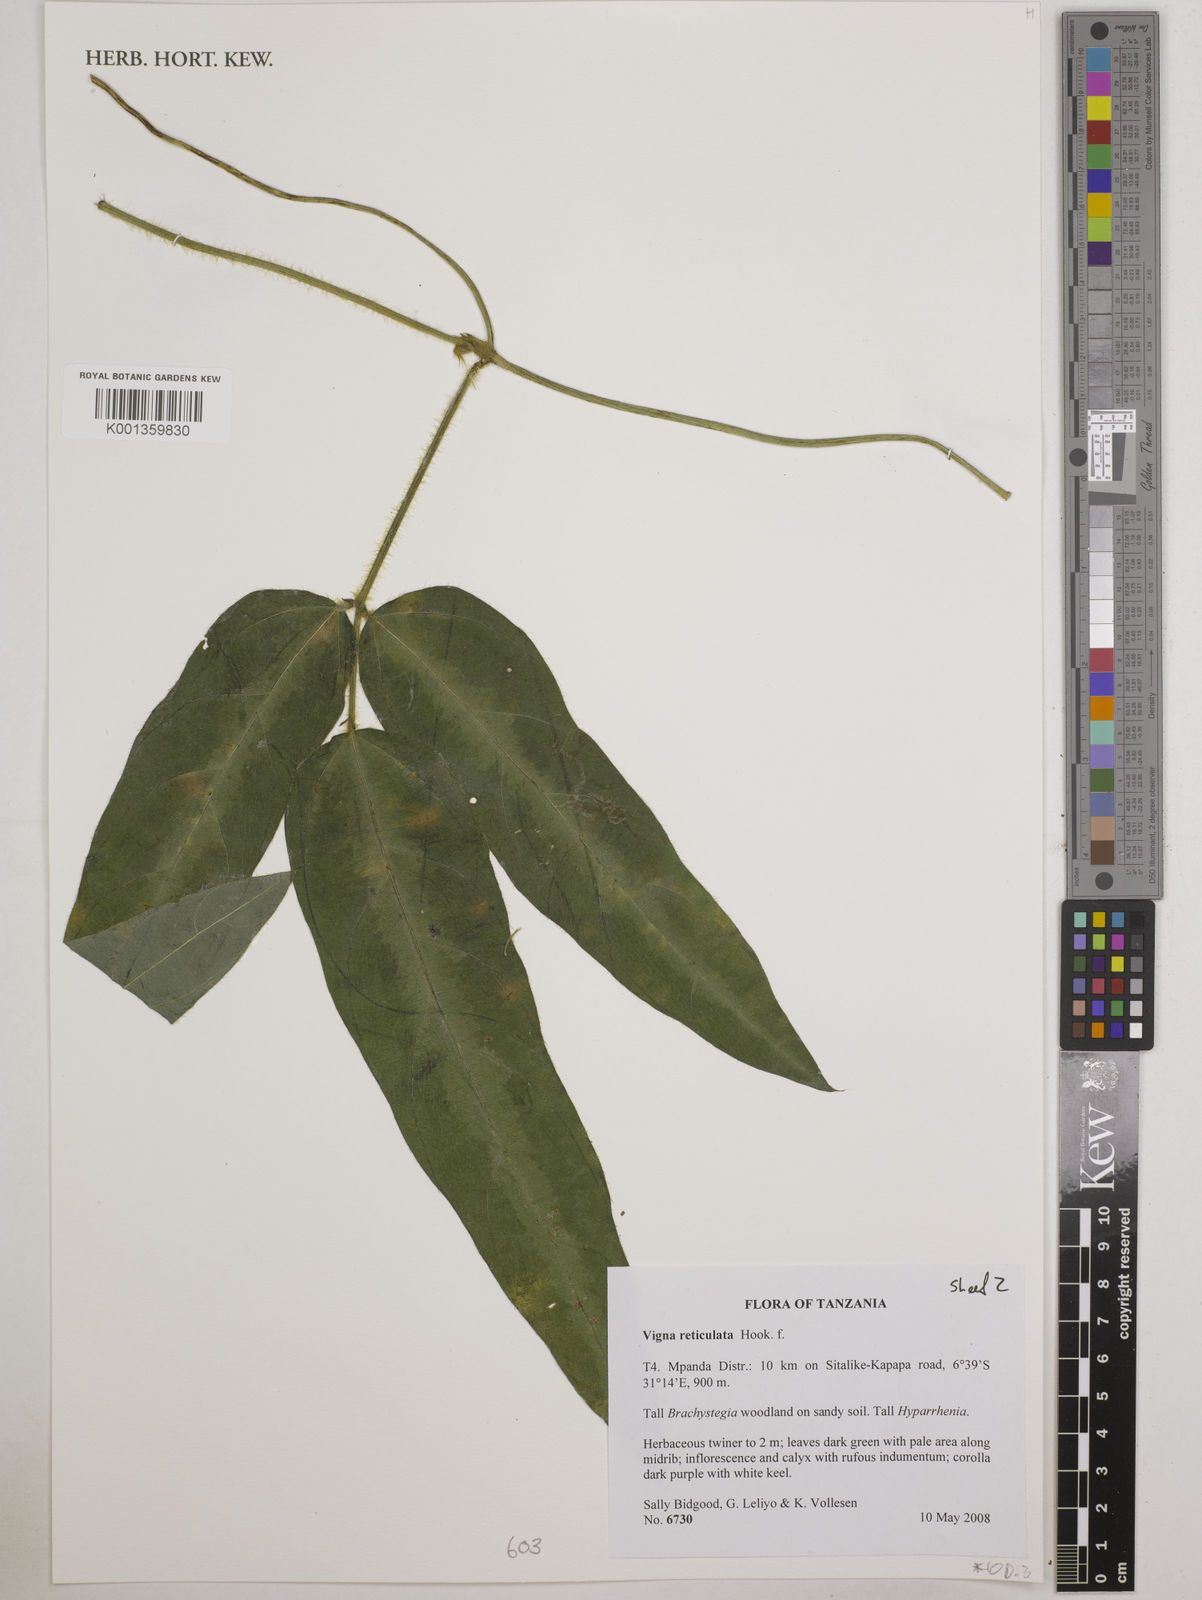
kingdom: Plantae
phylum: Tracheophyta
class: Magnoliopsida
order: Fabales
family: Fabaceae
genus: Vigna
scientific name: Vigna reticulata
